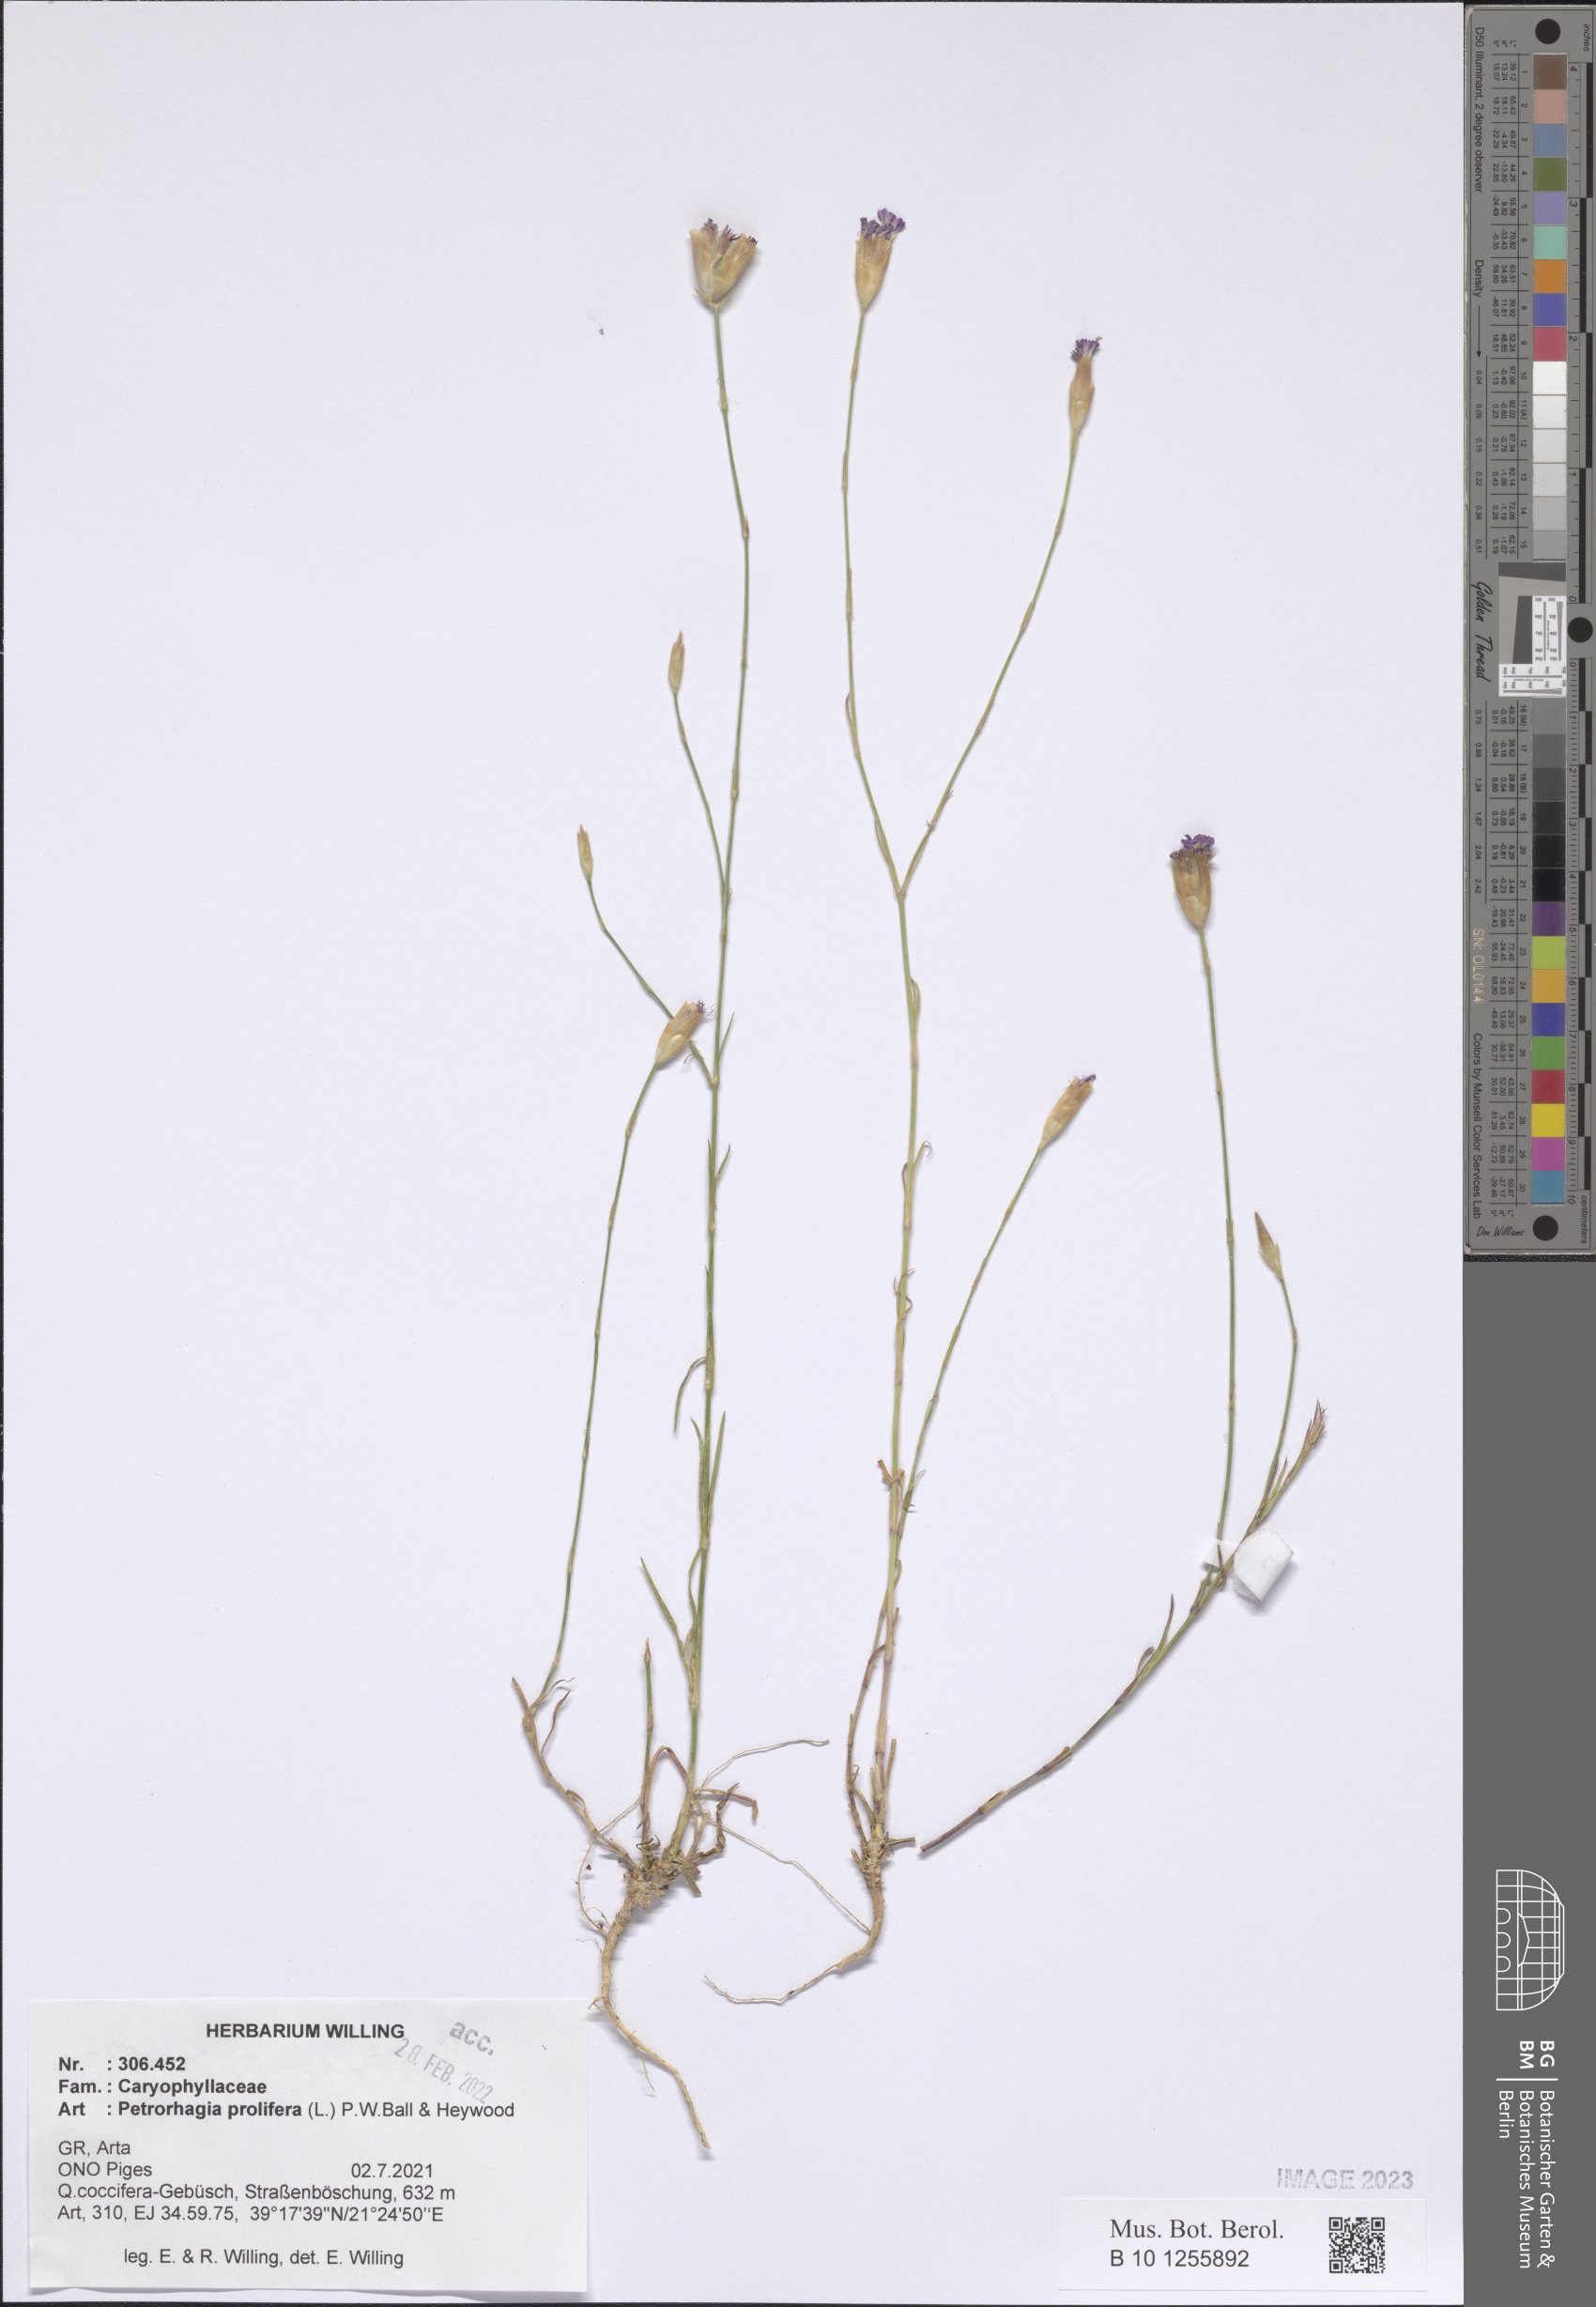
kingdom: Plantae
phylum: Tracheophyta
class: Magnoliopsida
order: Caryophyllales
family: Caryophyllaceae
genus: Petrorhagia
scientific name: Petrorhagia prolifera
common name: Proliferous pink
